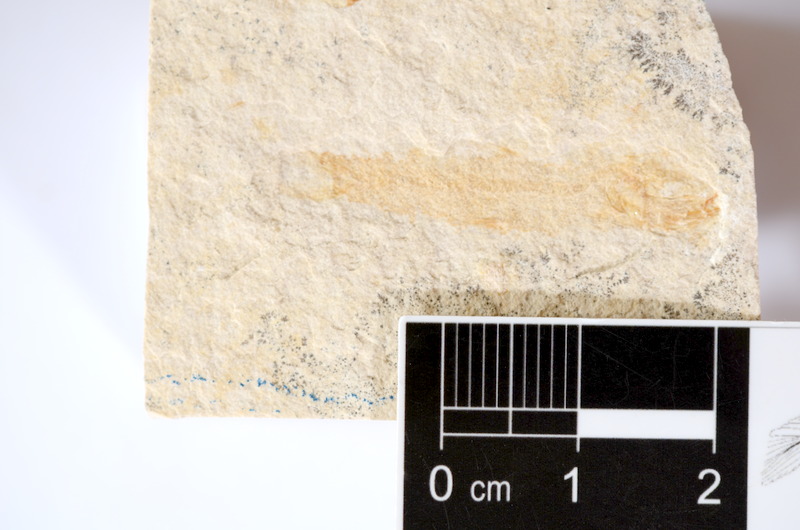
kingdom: Animalia
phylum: Chordata
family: Ascalaboidae
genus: Tharsis
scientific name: Tharsis dubius
